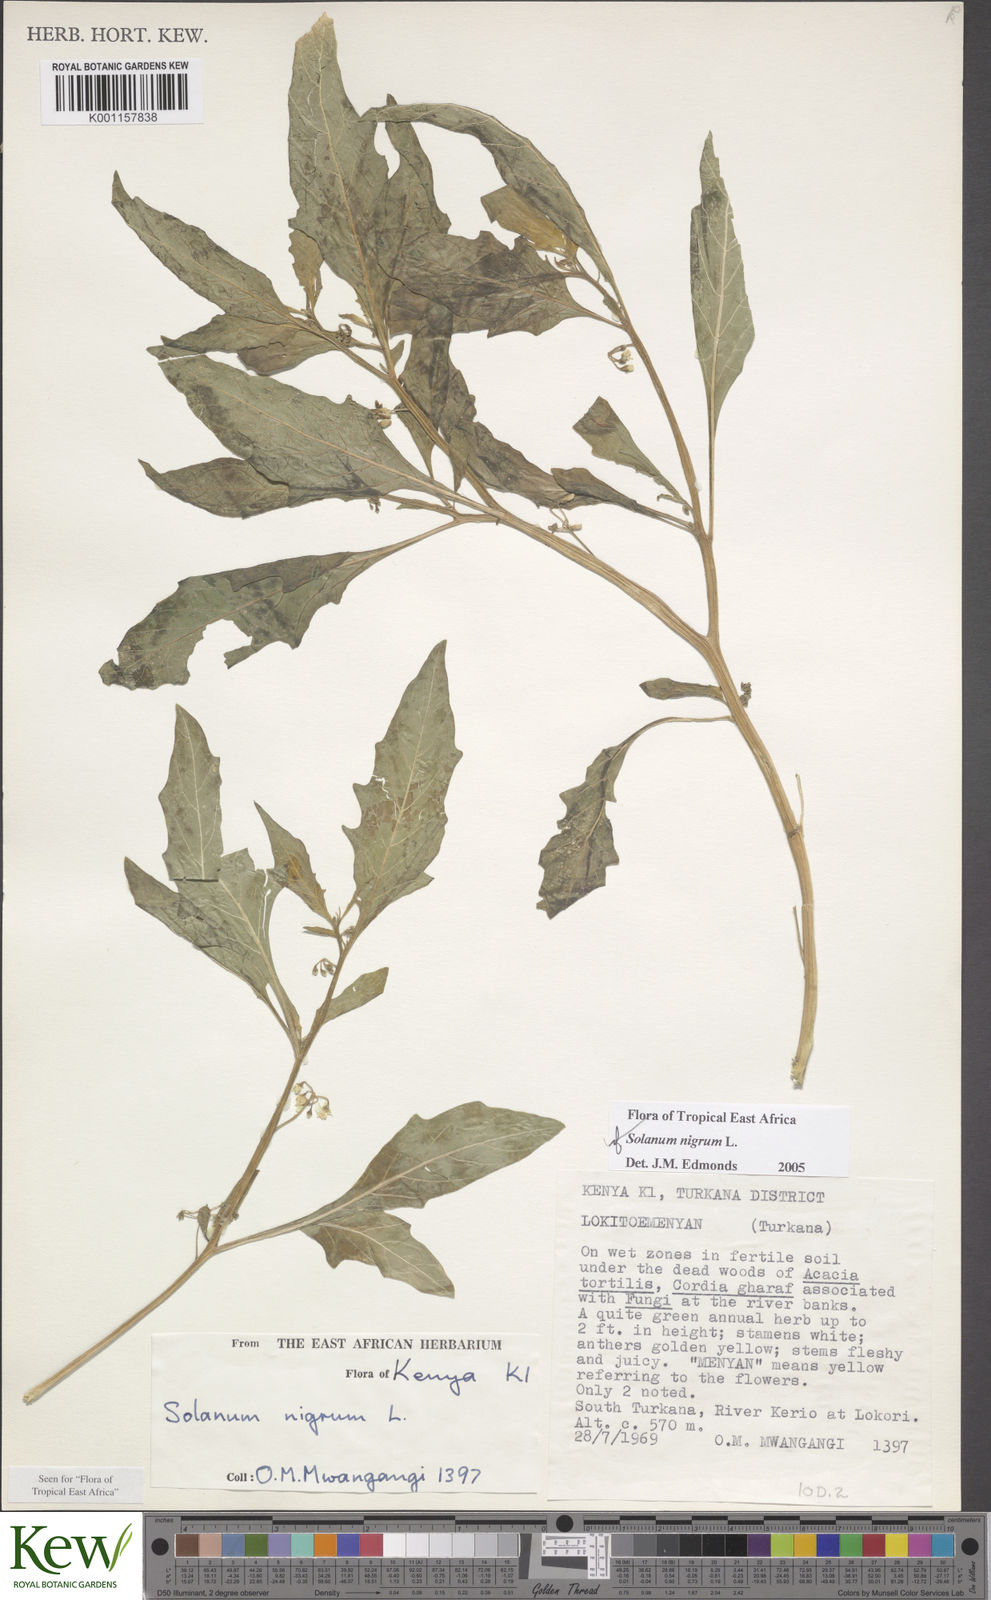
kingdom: Plantae
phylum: Tracheophyta
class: Magnoliopsida
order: Solanales
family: Solanaceae
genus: Solanum
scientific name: Solanum nigrum
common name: Black nightshade
